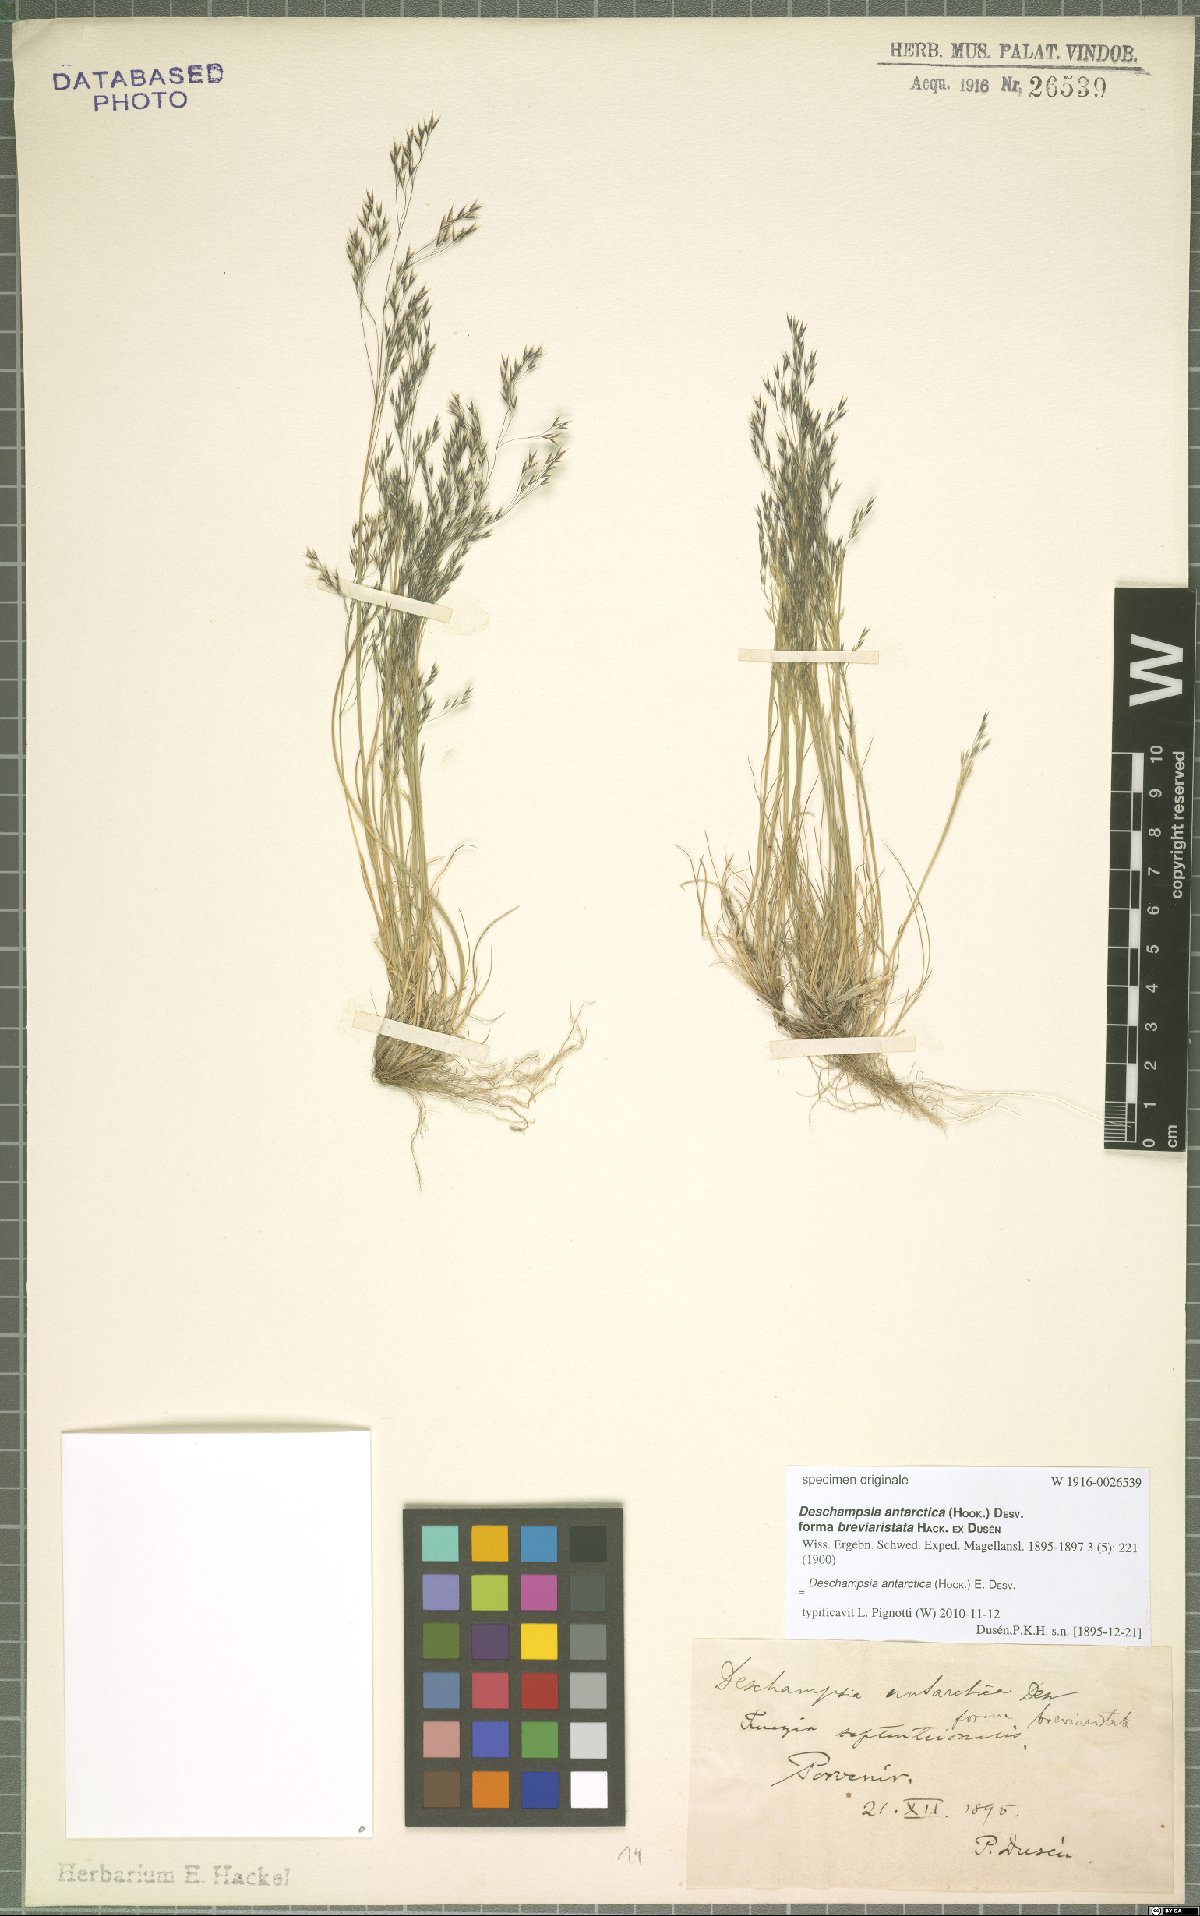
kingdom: Plantae
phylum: Tracheophyta
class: Liliopsida
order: Poales
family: Poaceae
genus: Deschampsia
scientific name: Deschampsia antarctica
